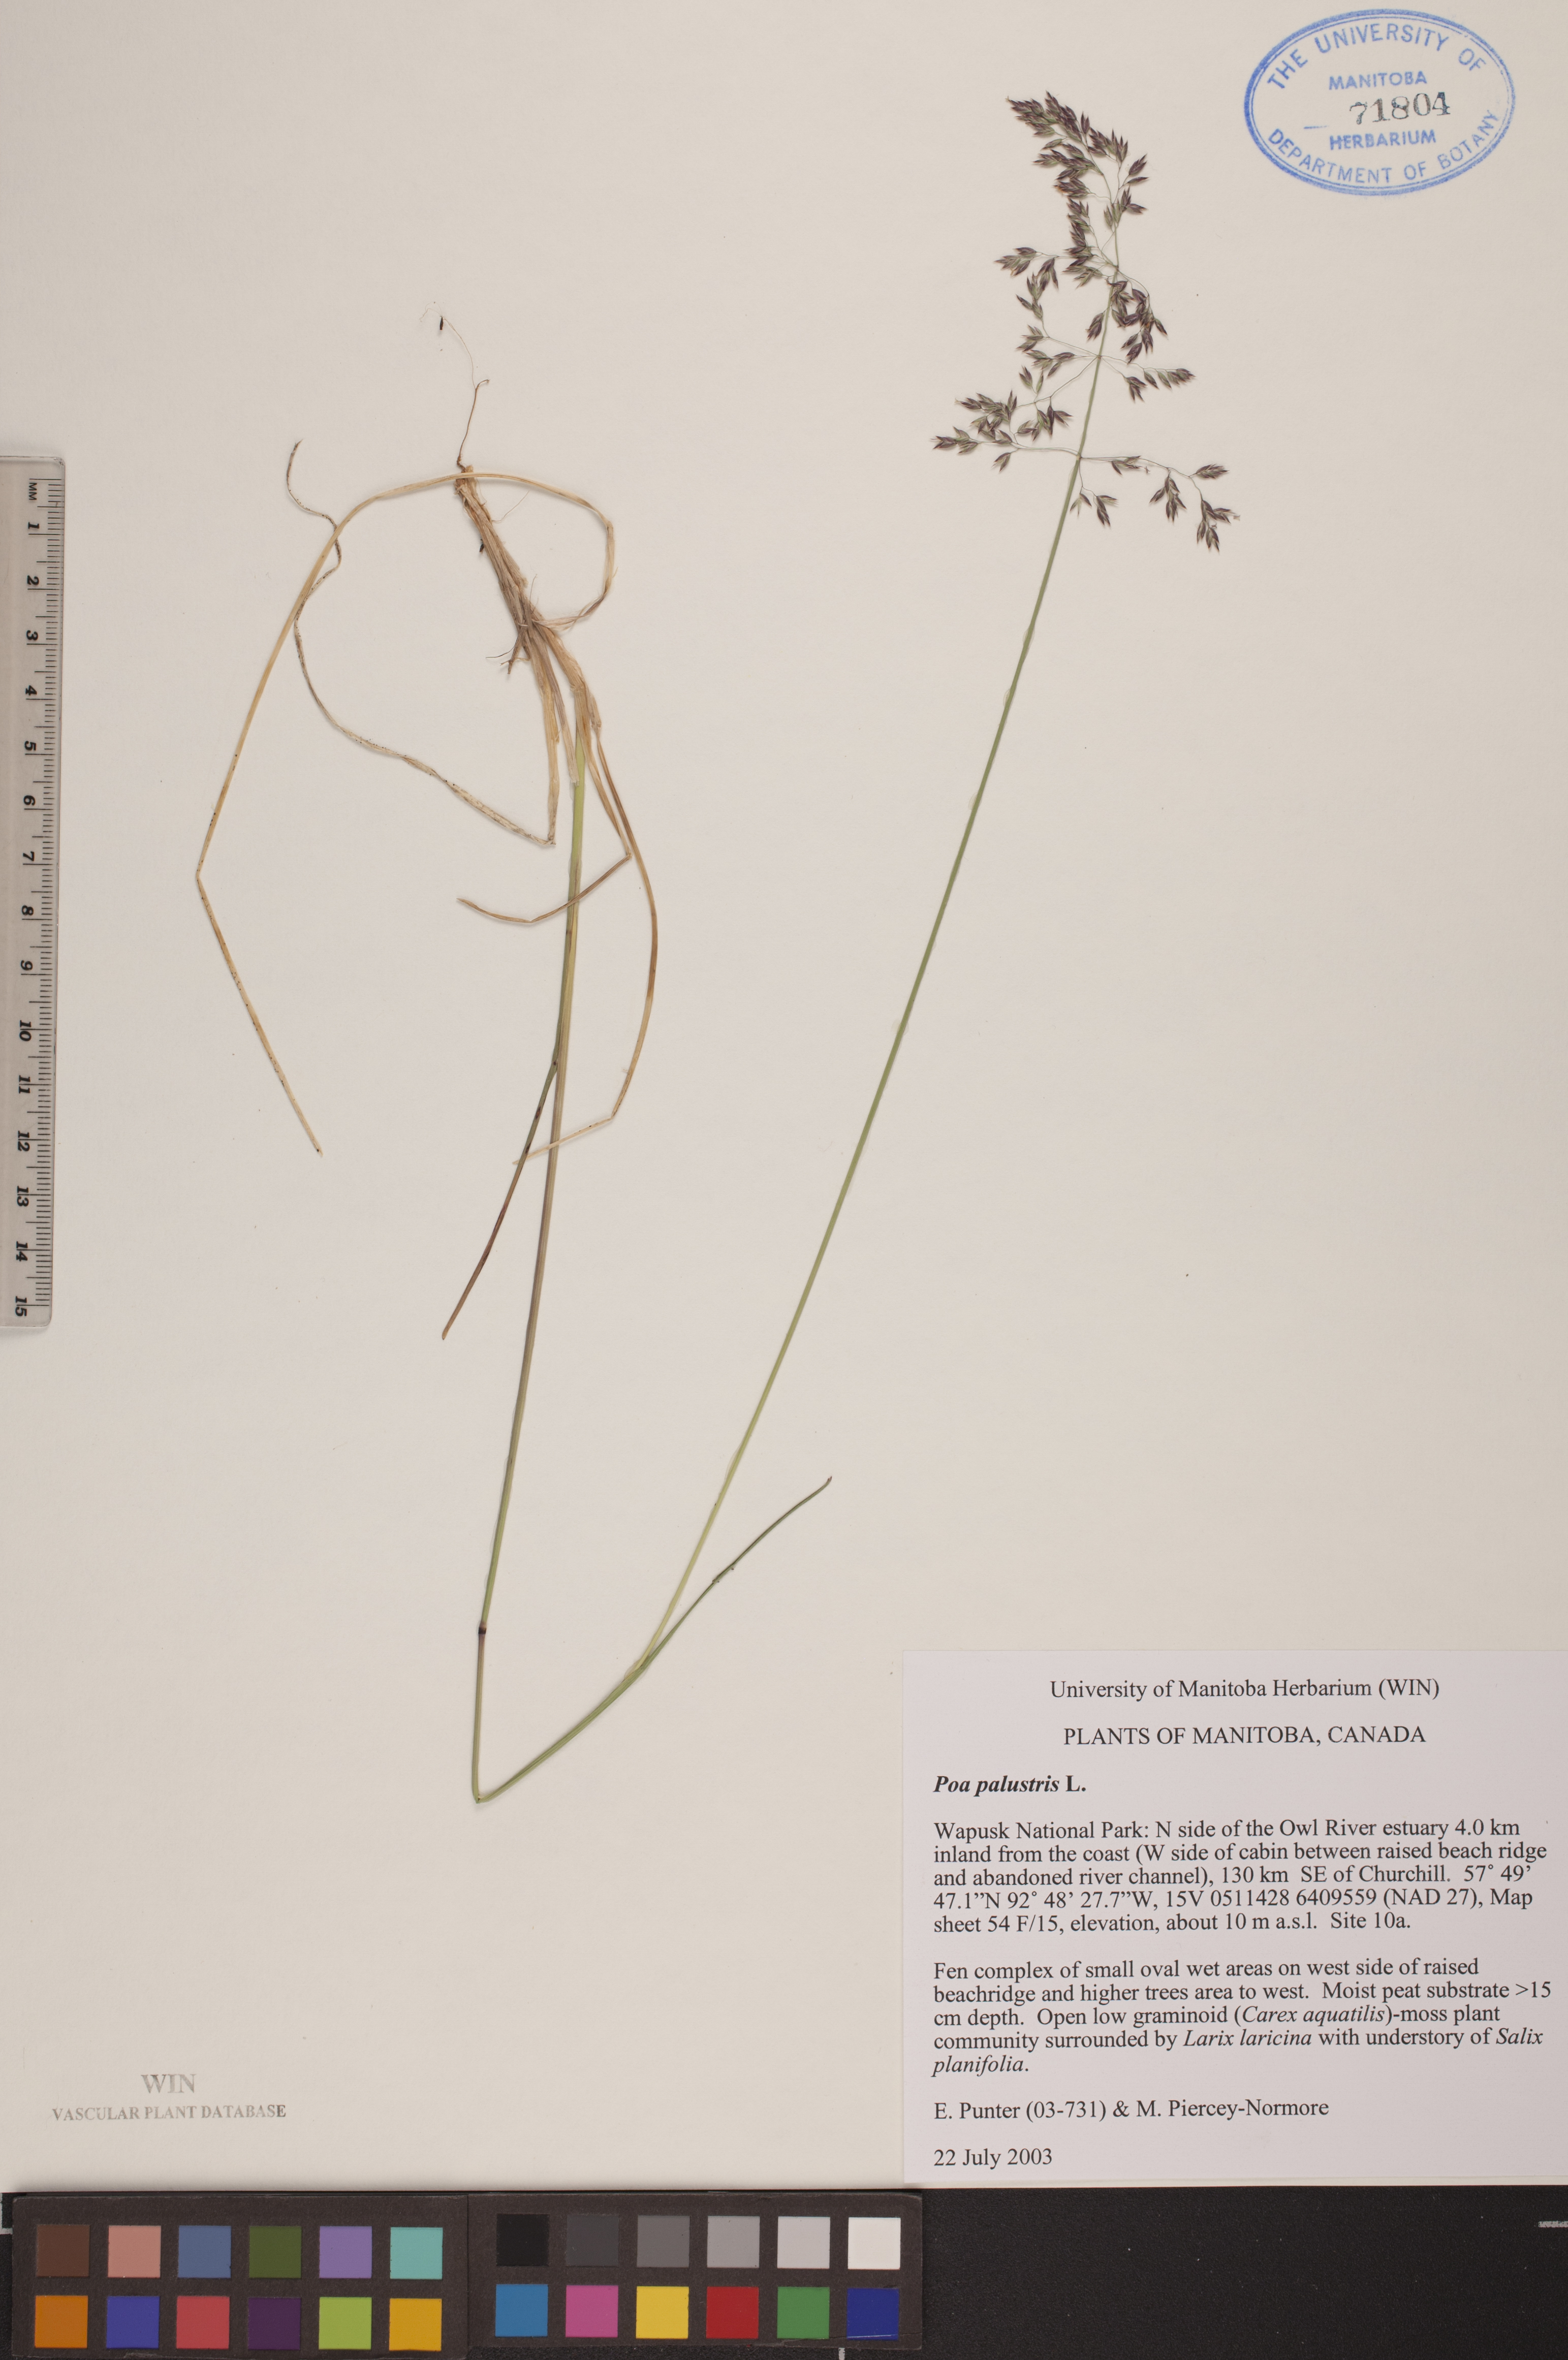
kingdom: Plantae
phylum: Tracheophyta
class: Liliopsida
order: Poales
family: Poaceae
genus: Poa
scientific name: Poa palustris
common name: Swamp meadow-grass
